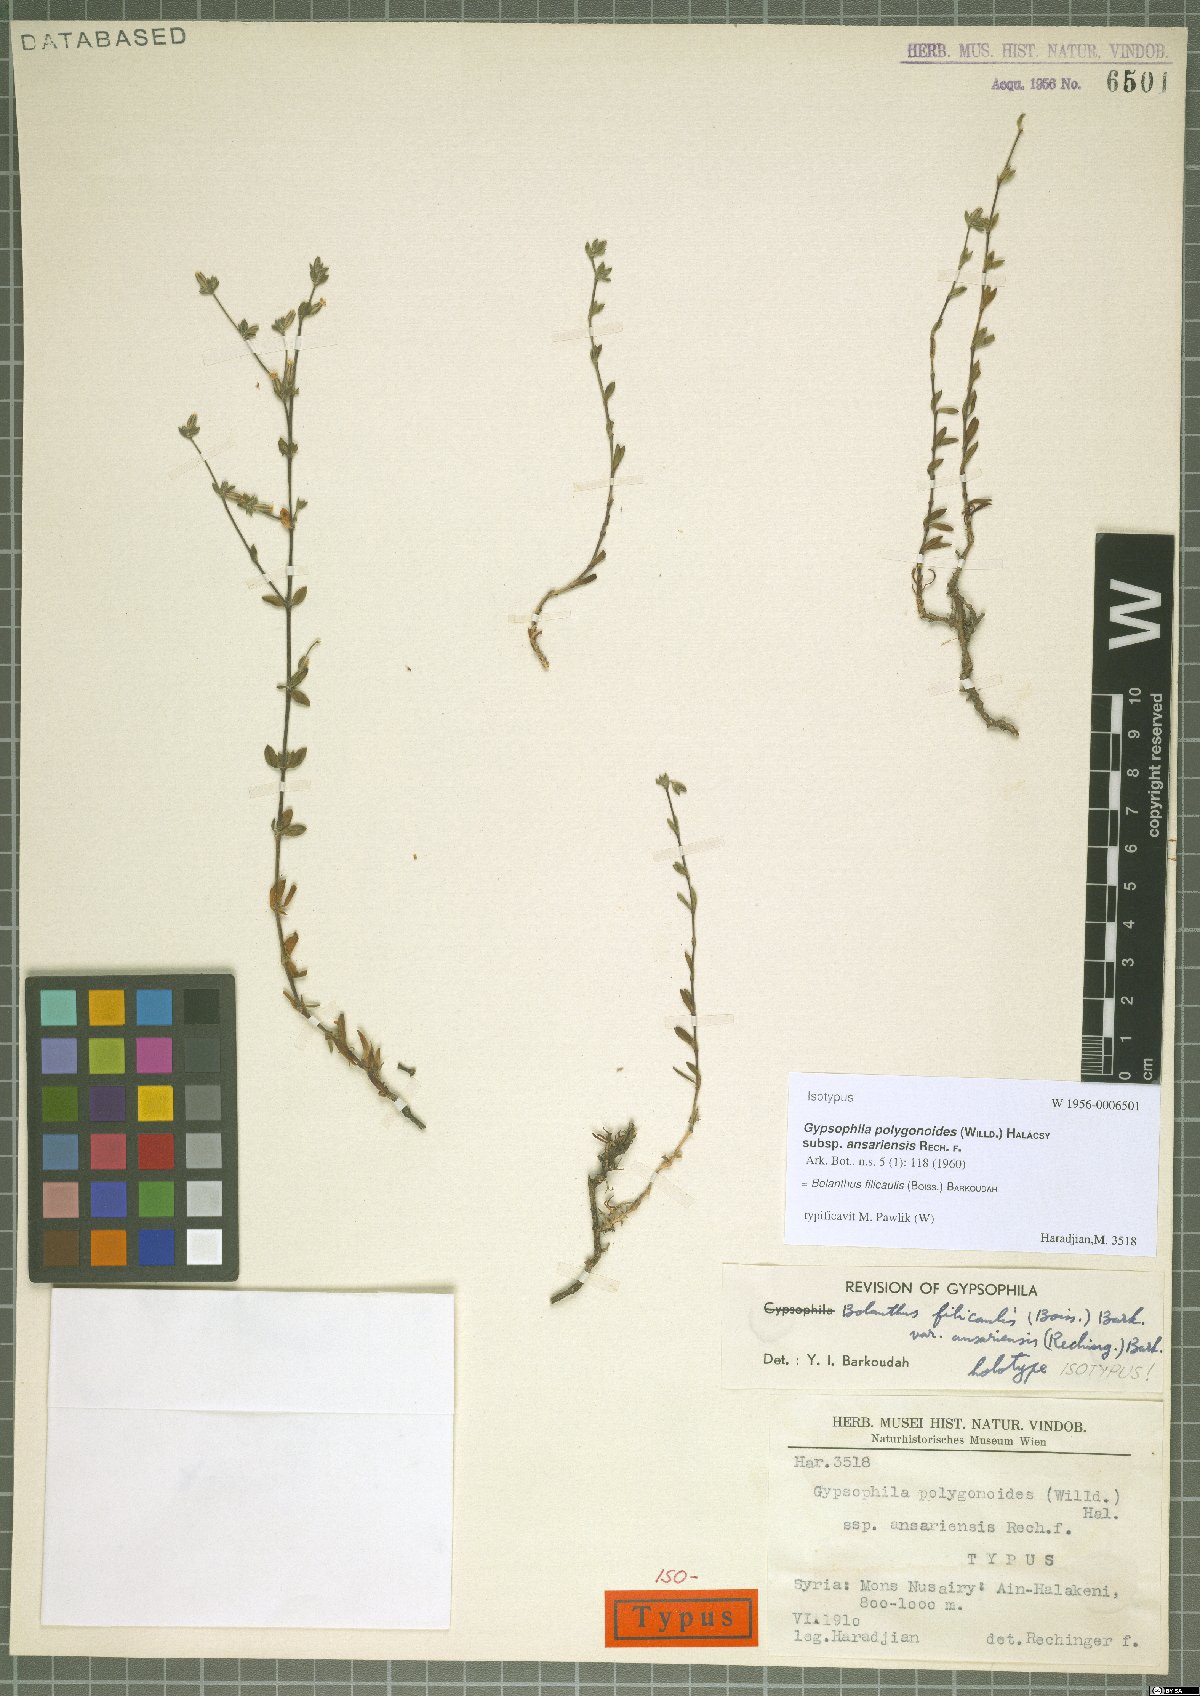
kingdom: Plantae
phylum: Tracheophyta
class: Magnoliopsida
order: Caryophyllales
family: Caryophyllaceae
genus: Bolanthus
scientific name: Bolanthus filicaulis
